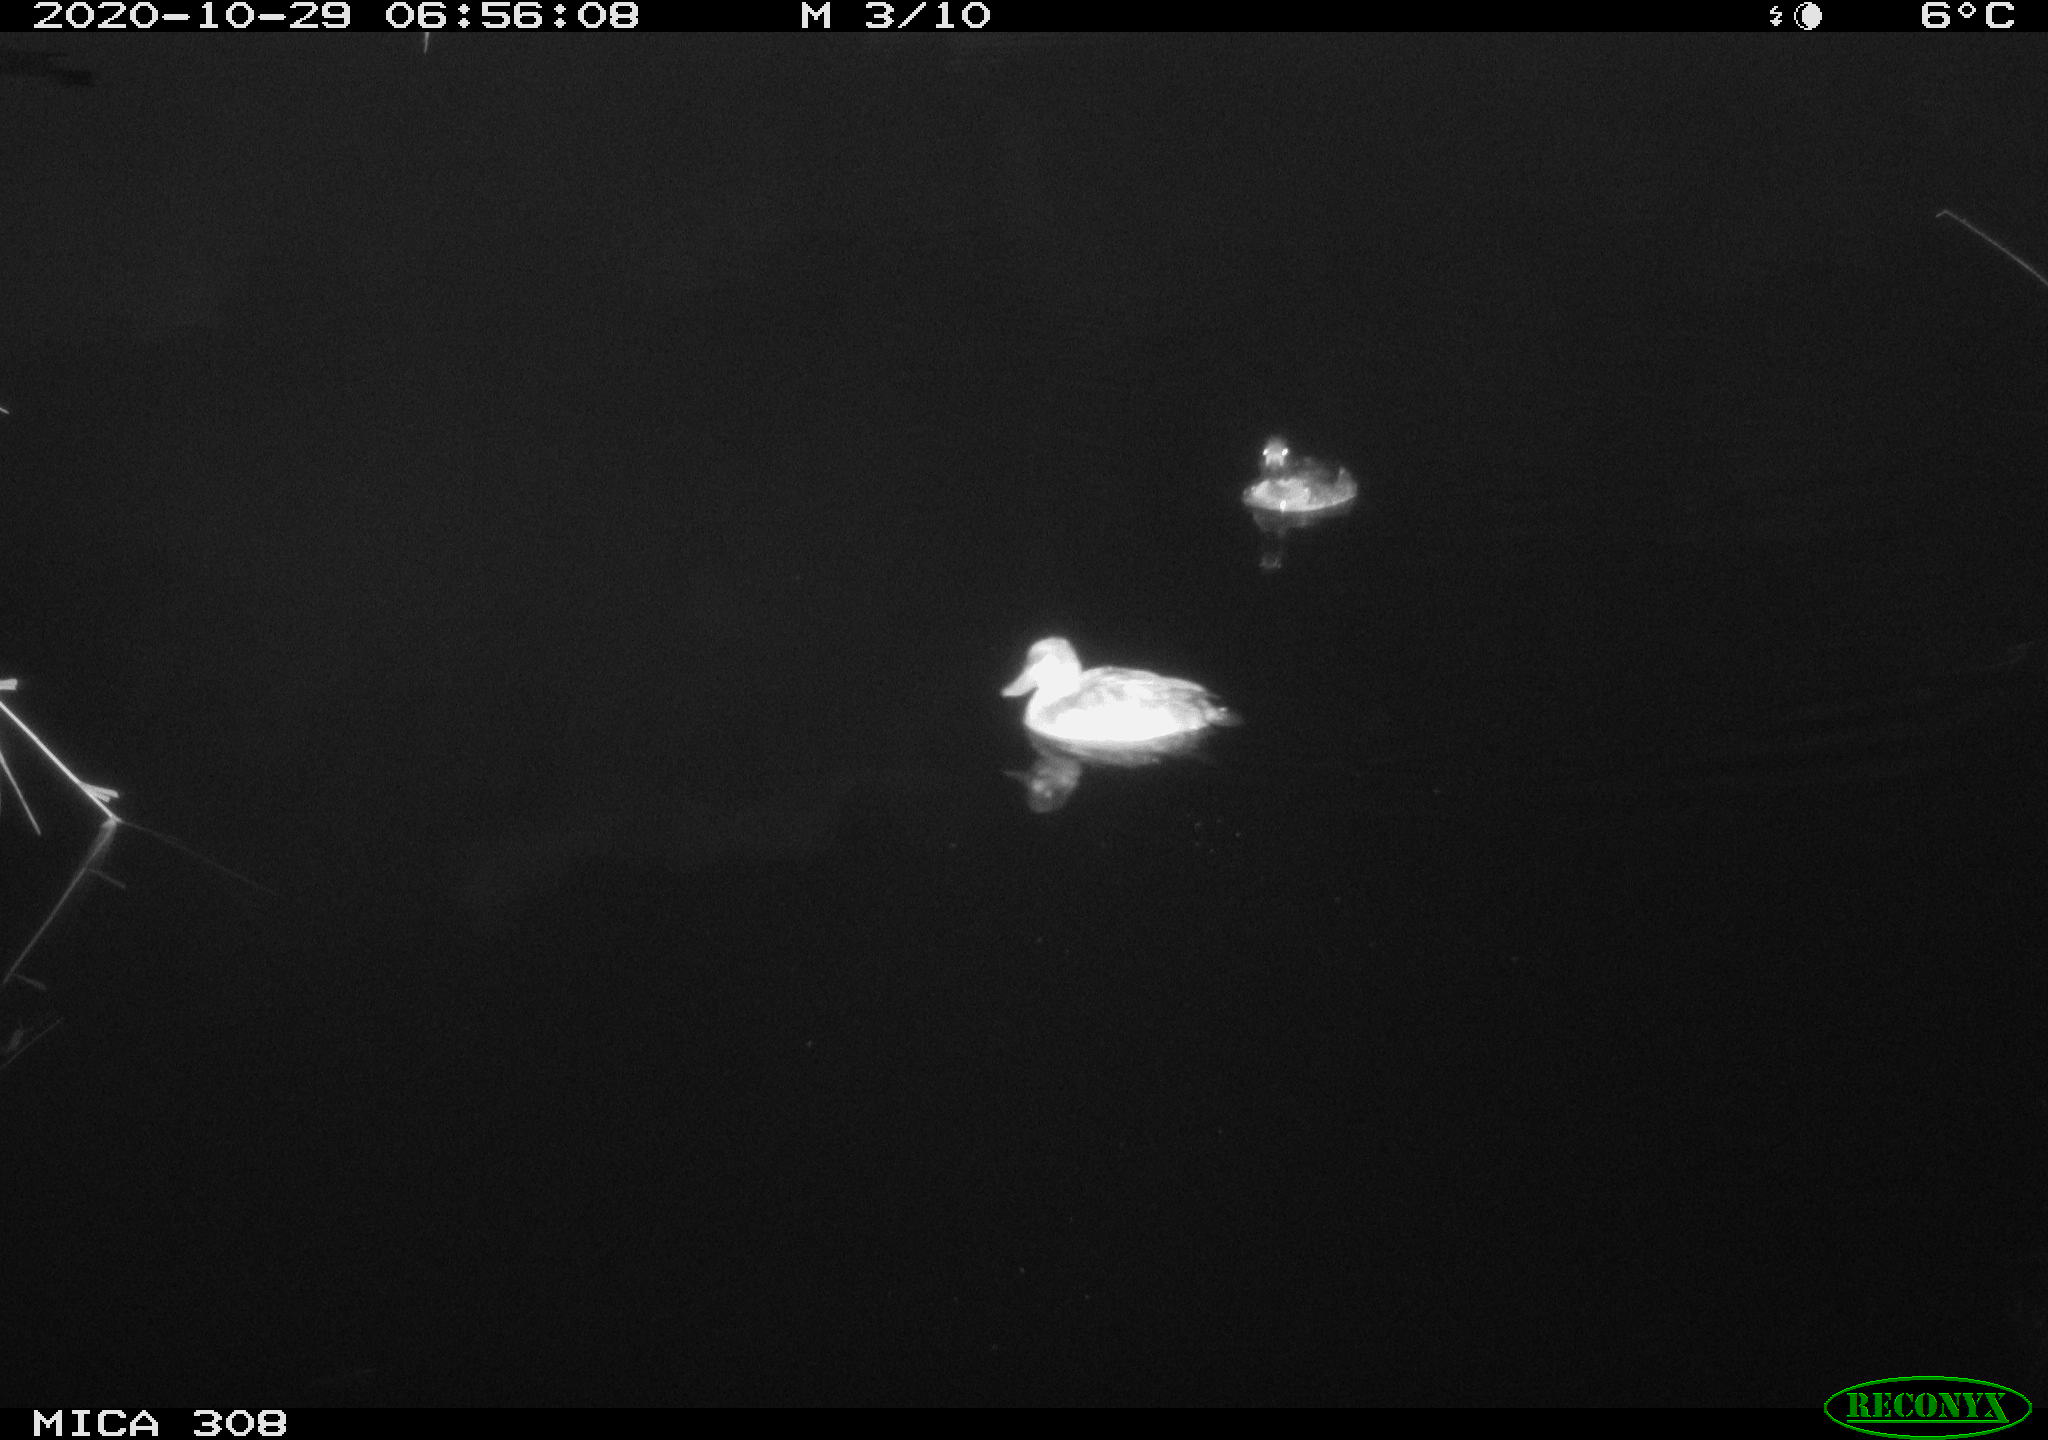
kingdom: Animalia
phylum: Chordata
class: Aves
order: Anseriformes
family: Anatidae
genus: Aythya
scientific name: Aythya fuligula
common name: Tufted duck
